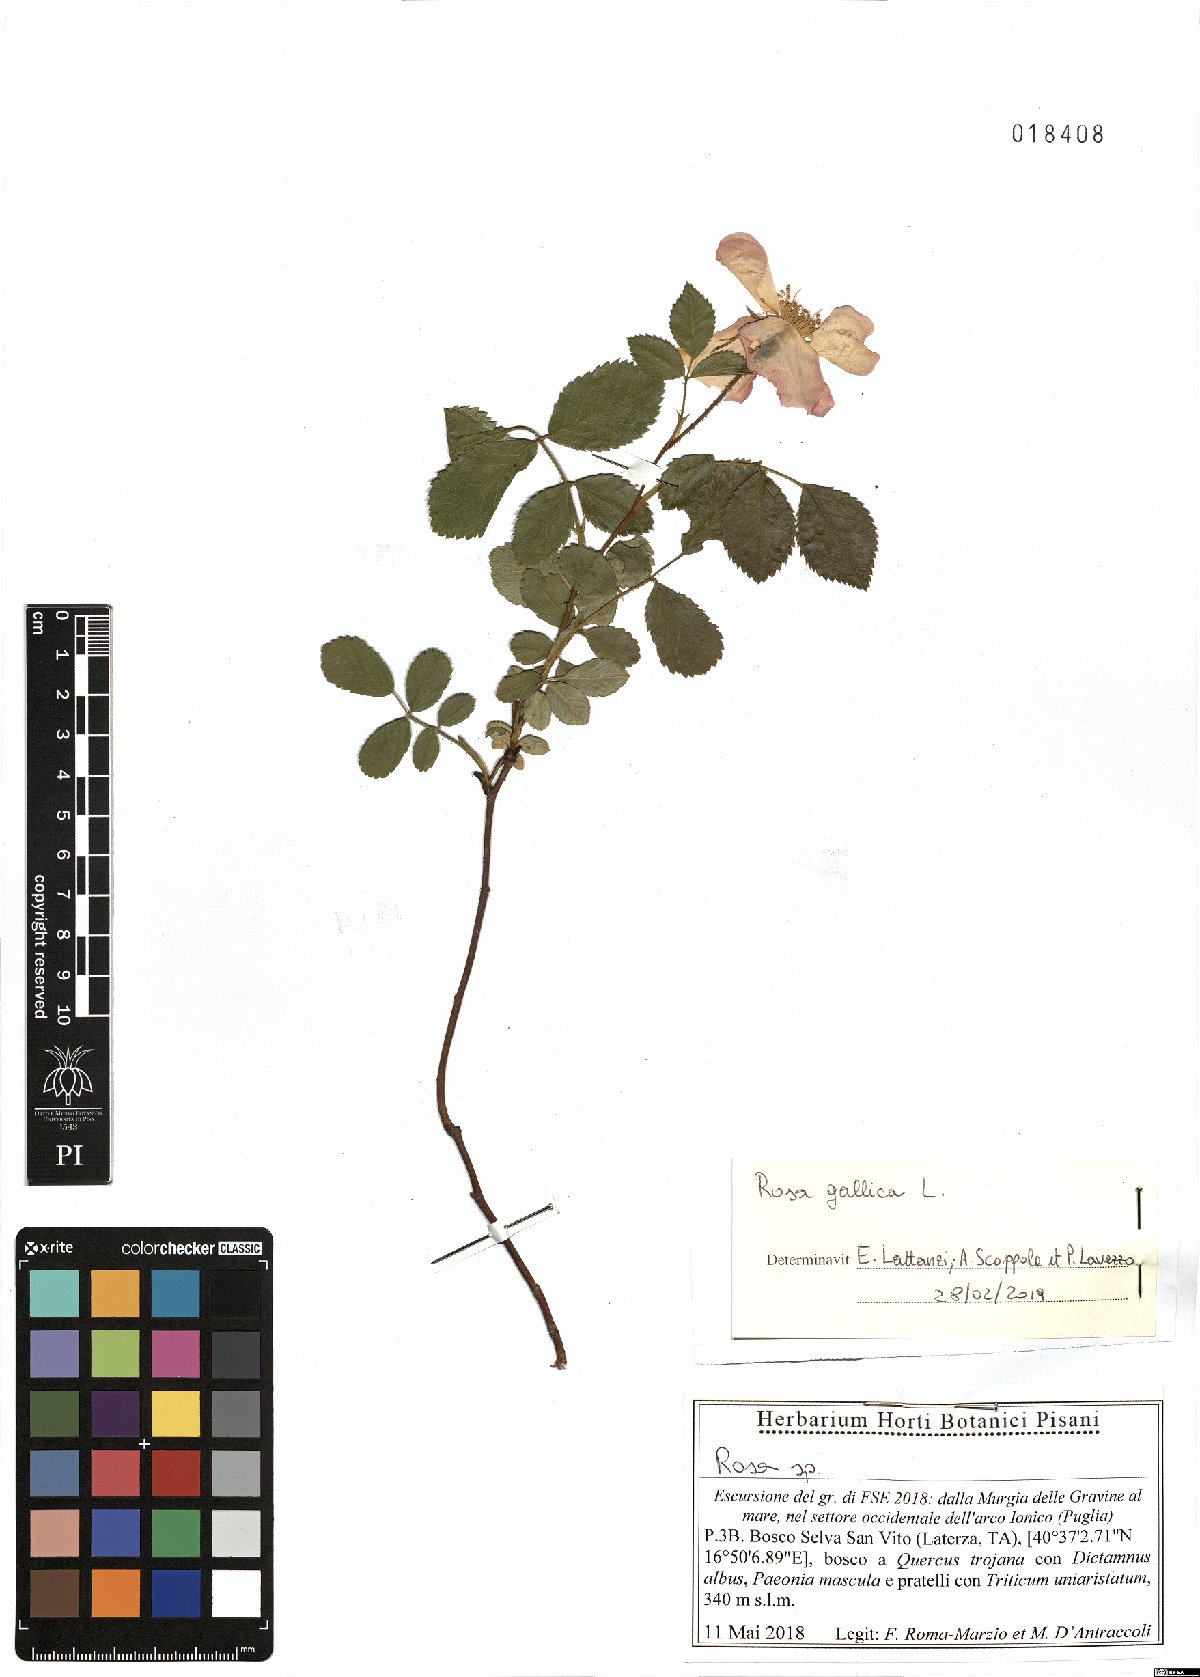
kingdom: Plantae
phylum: Tracheophyta
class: Magnoliopsida
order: Rosales
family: Rosaceae
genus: Rosa
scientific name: Rosa gallica
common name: French rose
